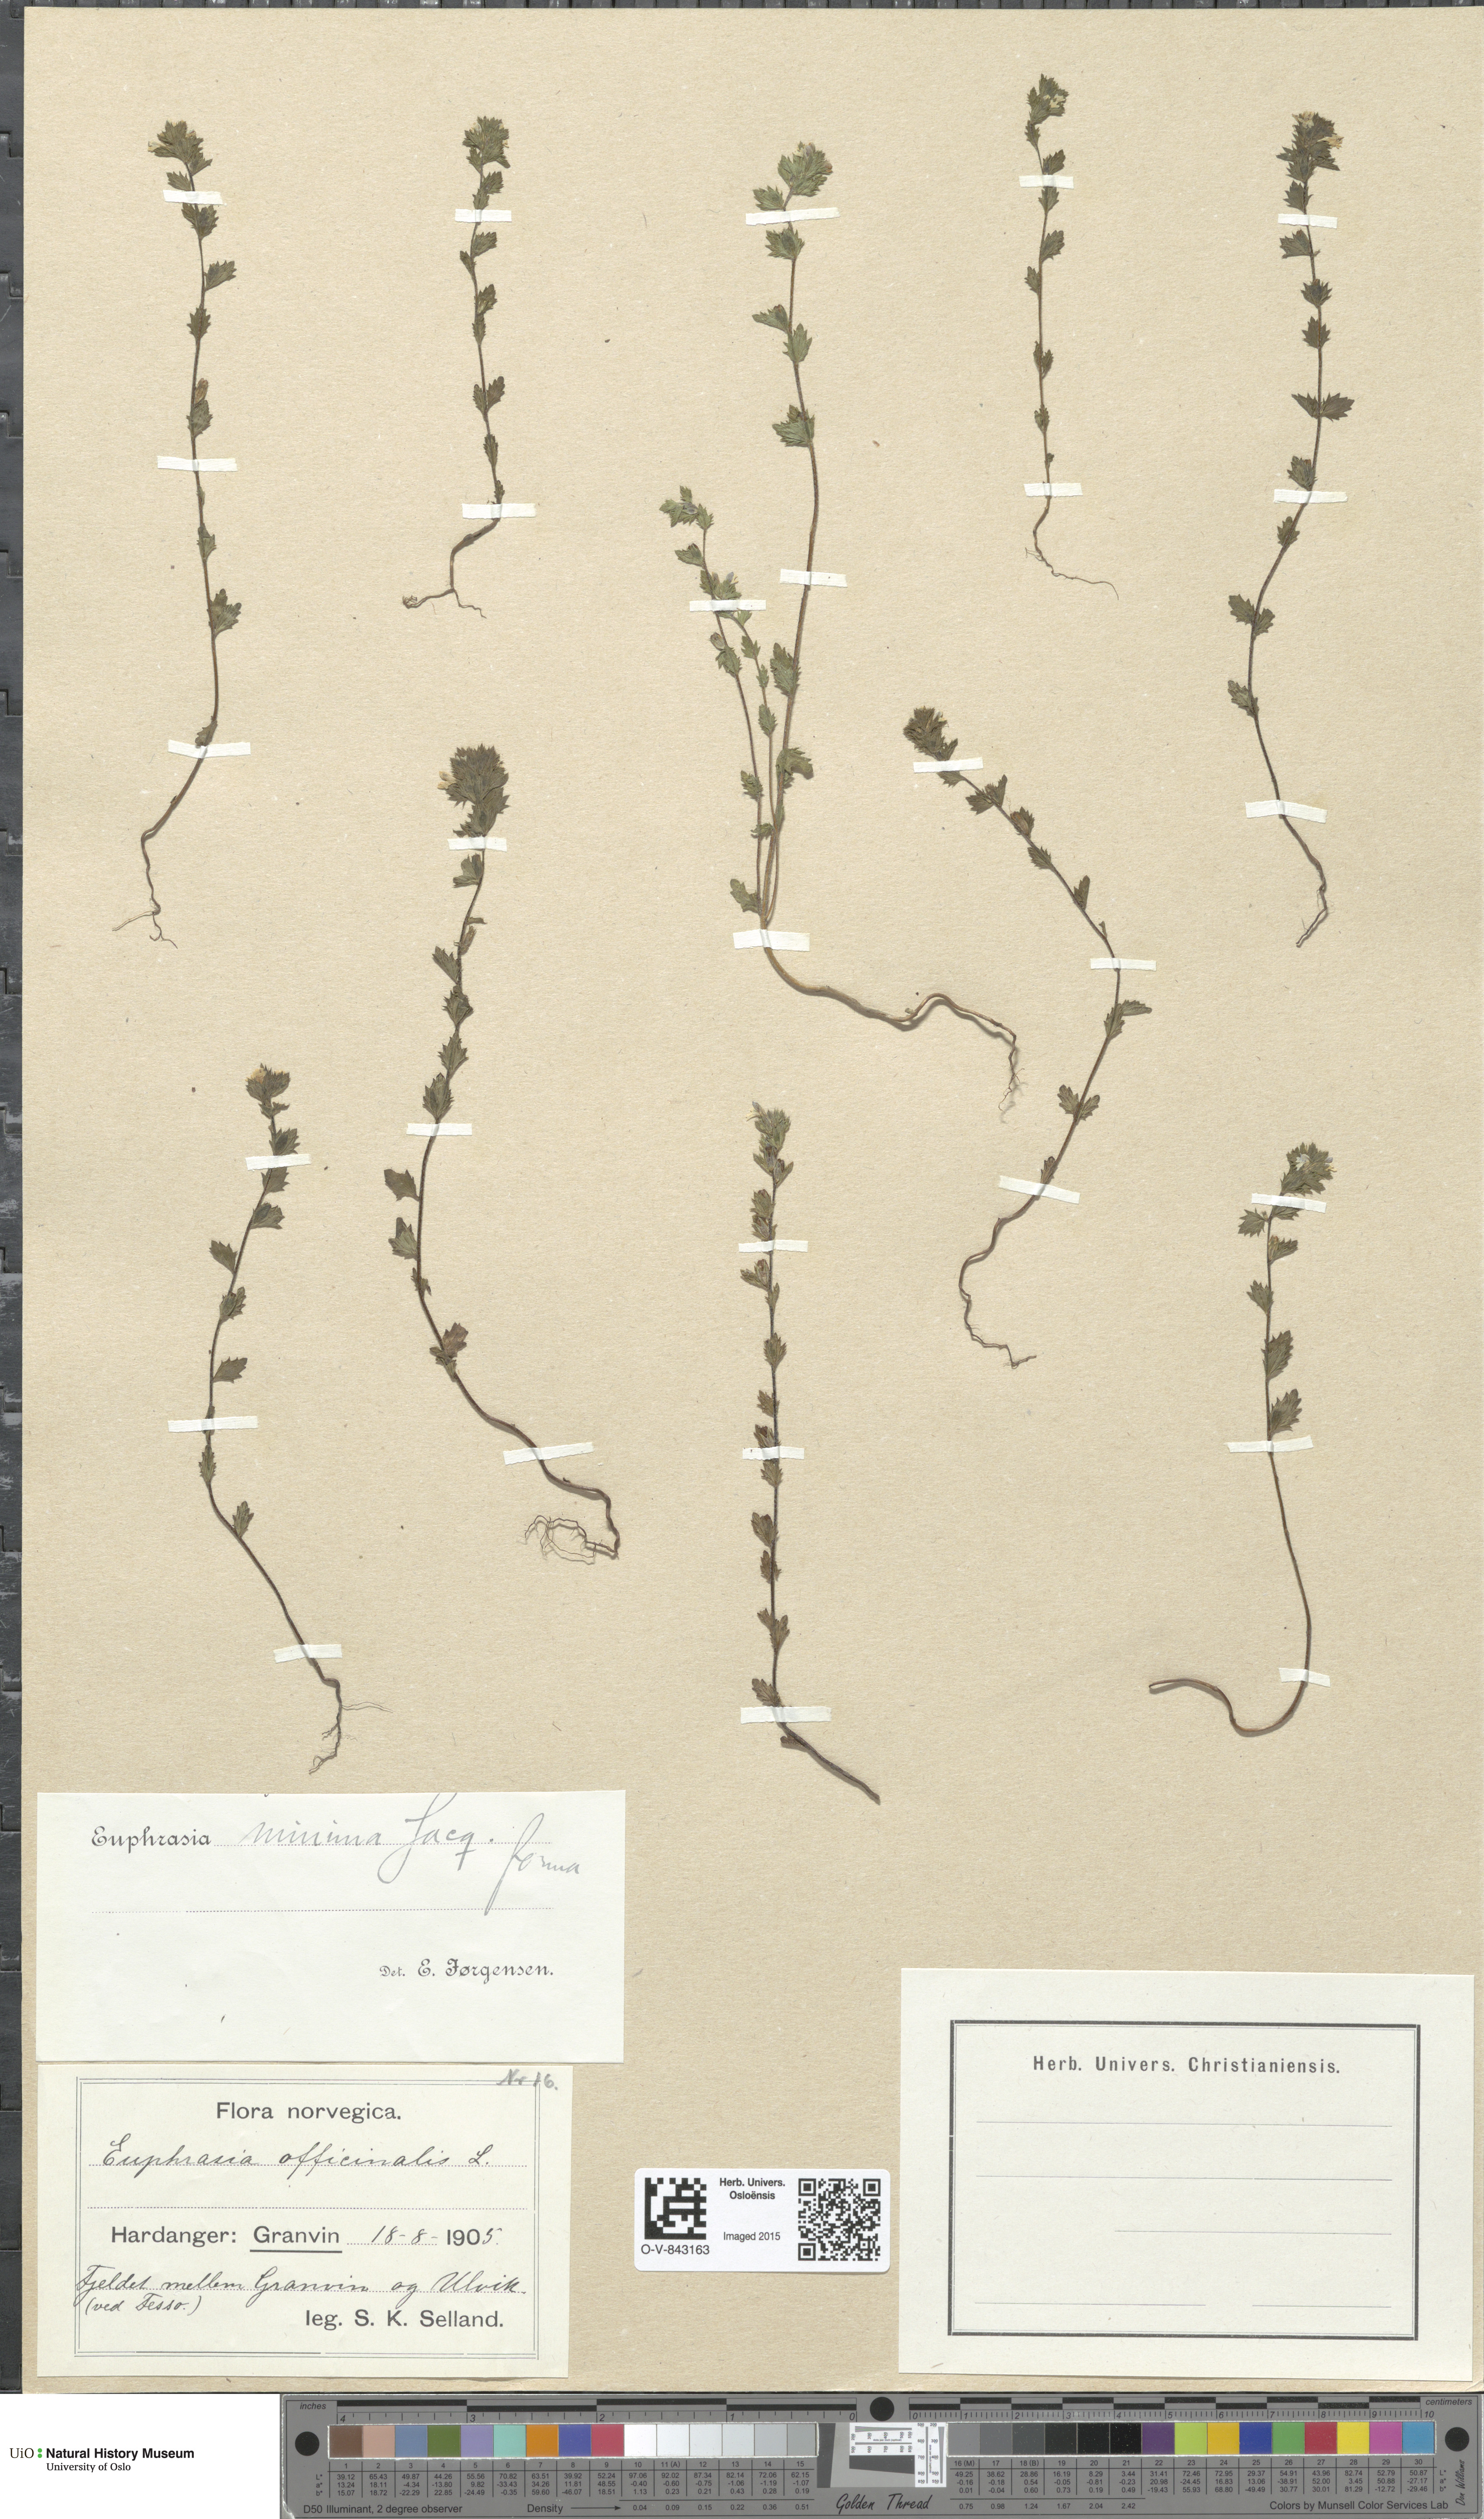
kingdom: Plantae
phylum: Tracheophyta
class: Magnoliopsida
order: Lamiales
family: Orobanchaceae
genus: Euphrasia
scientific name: Euphrasia wettsteinii
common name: Wettstein's eyebright
